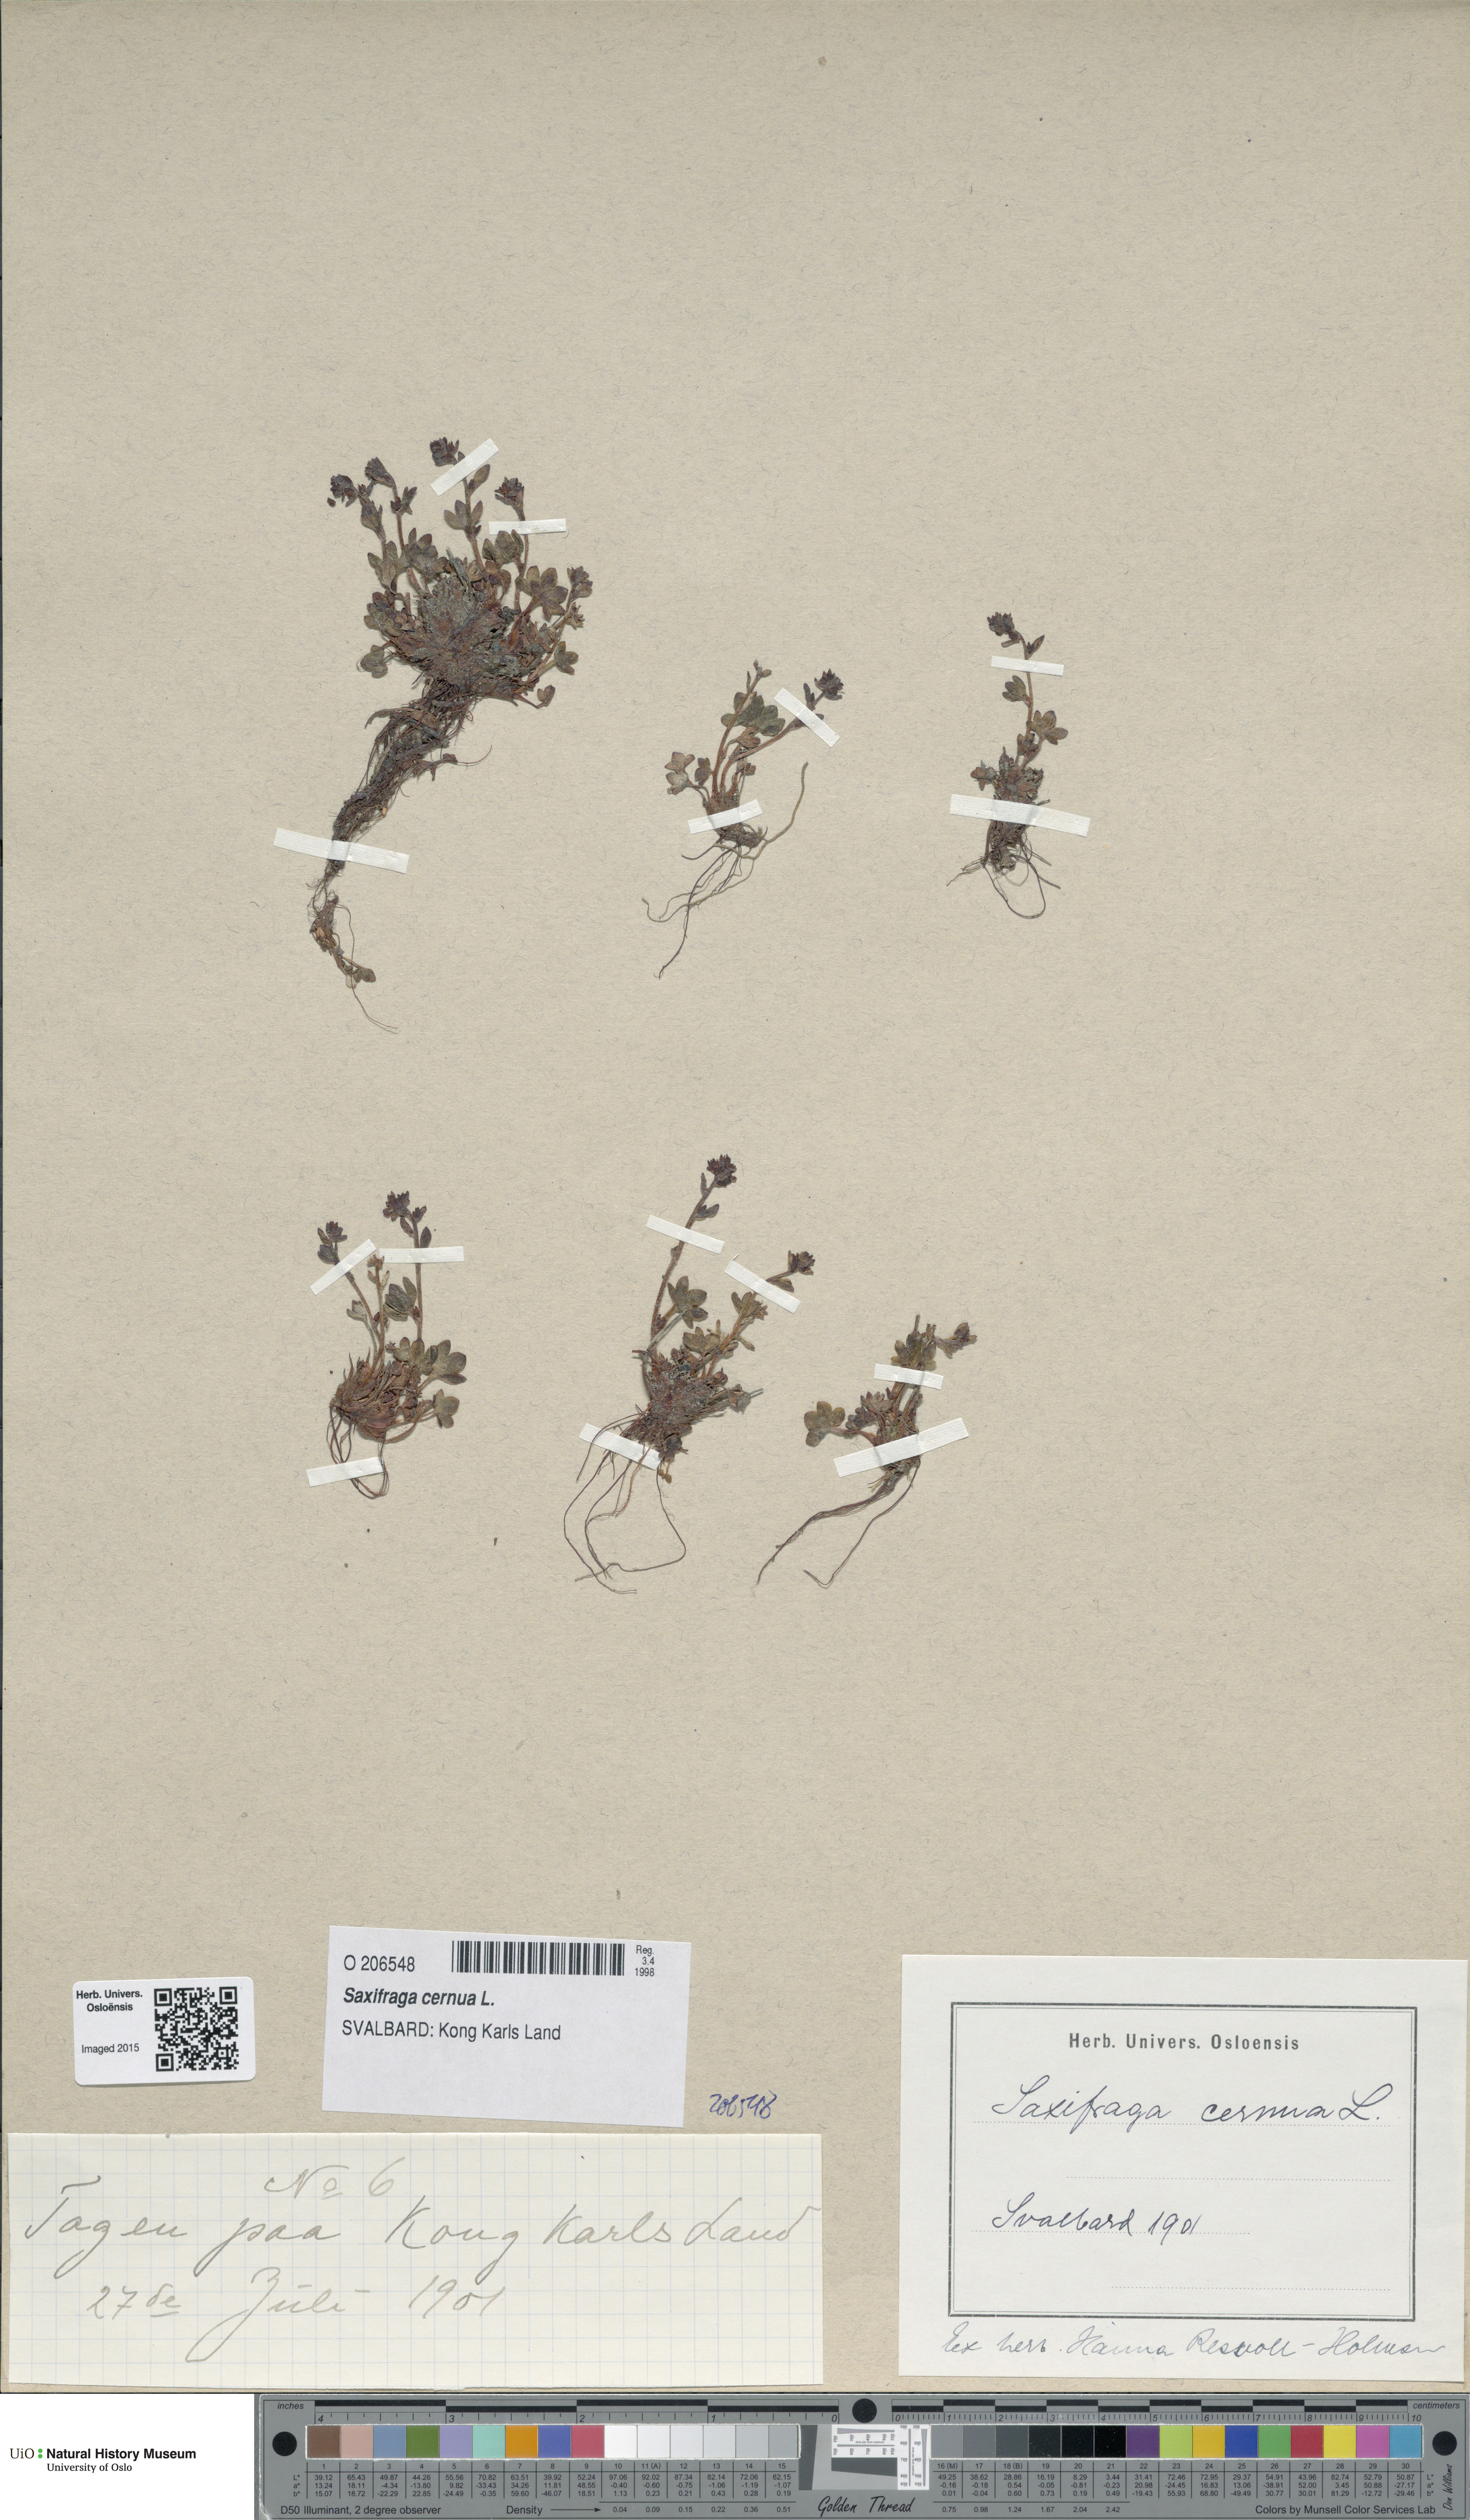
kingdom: Plantae
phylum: Tracheophyta
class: Magnoliopsida
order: Saxifragales
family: Saxifragaceae
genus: Saxifraga
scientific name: Saxifraga cernua
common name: Drooping saxifrage
